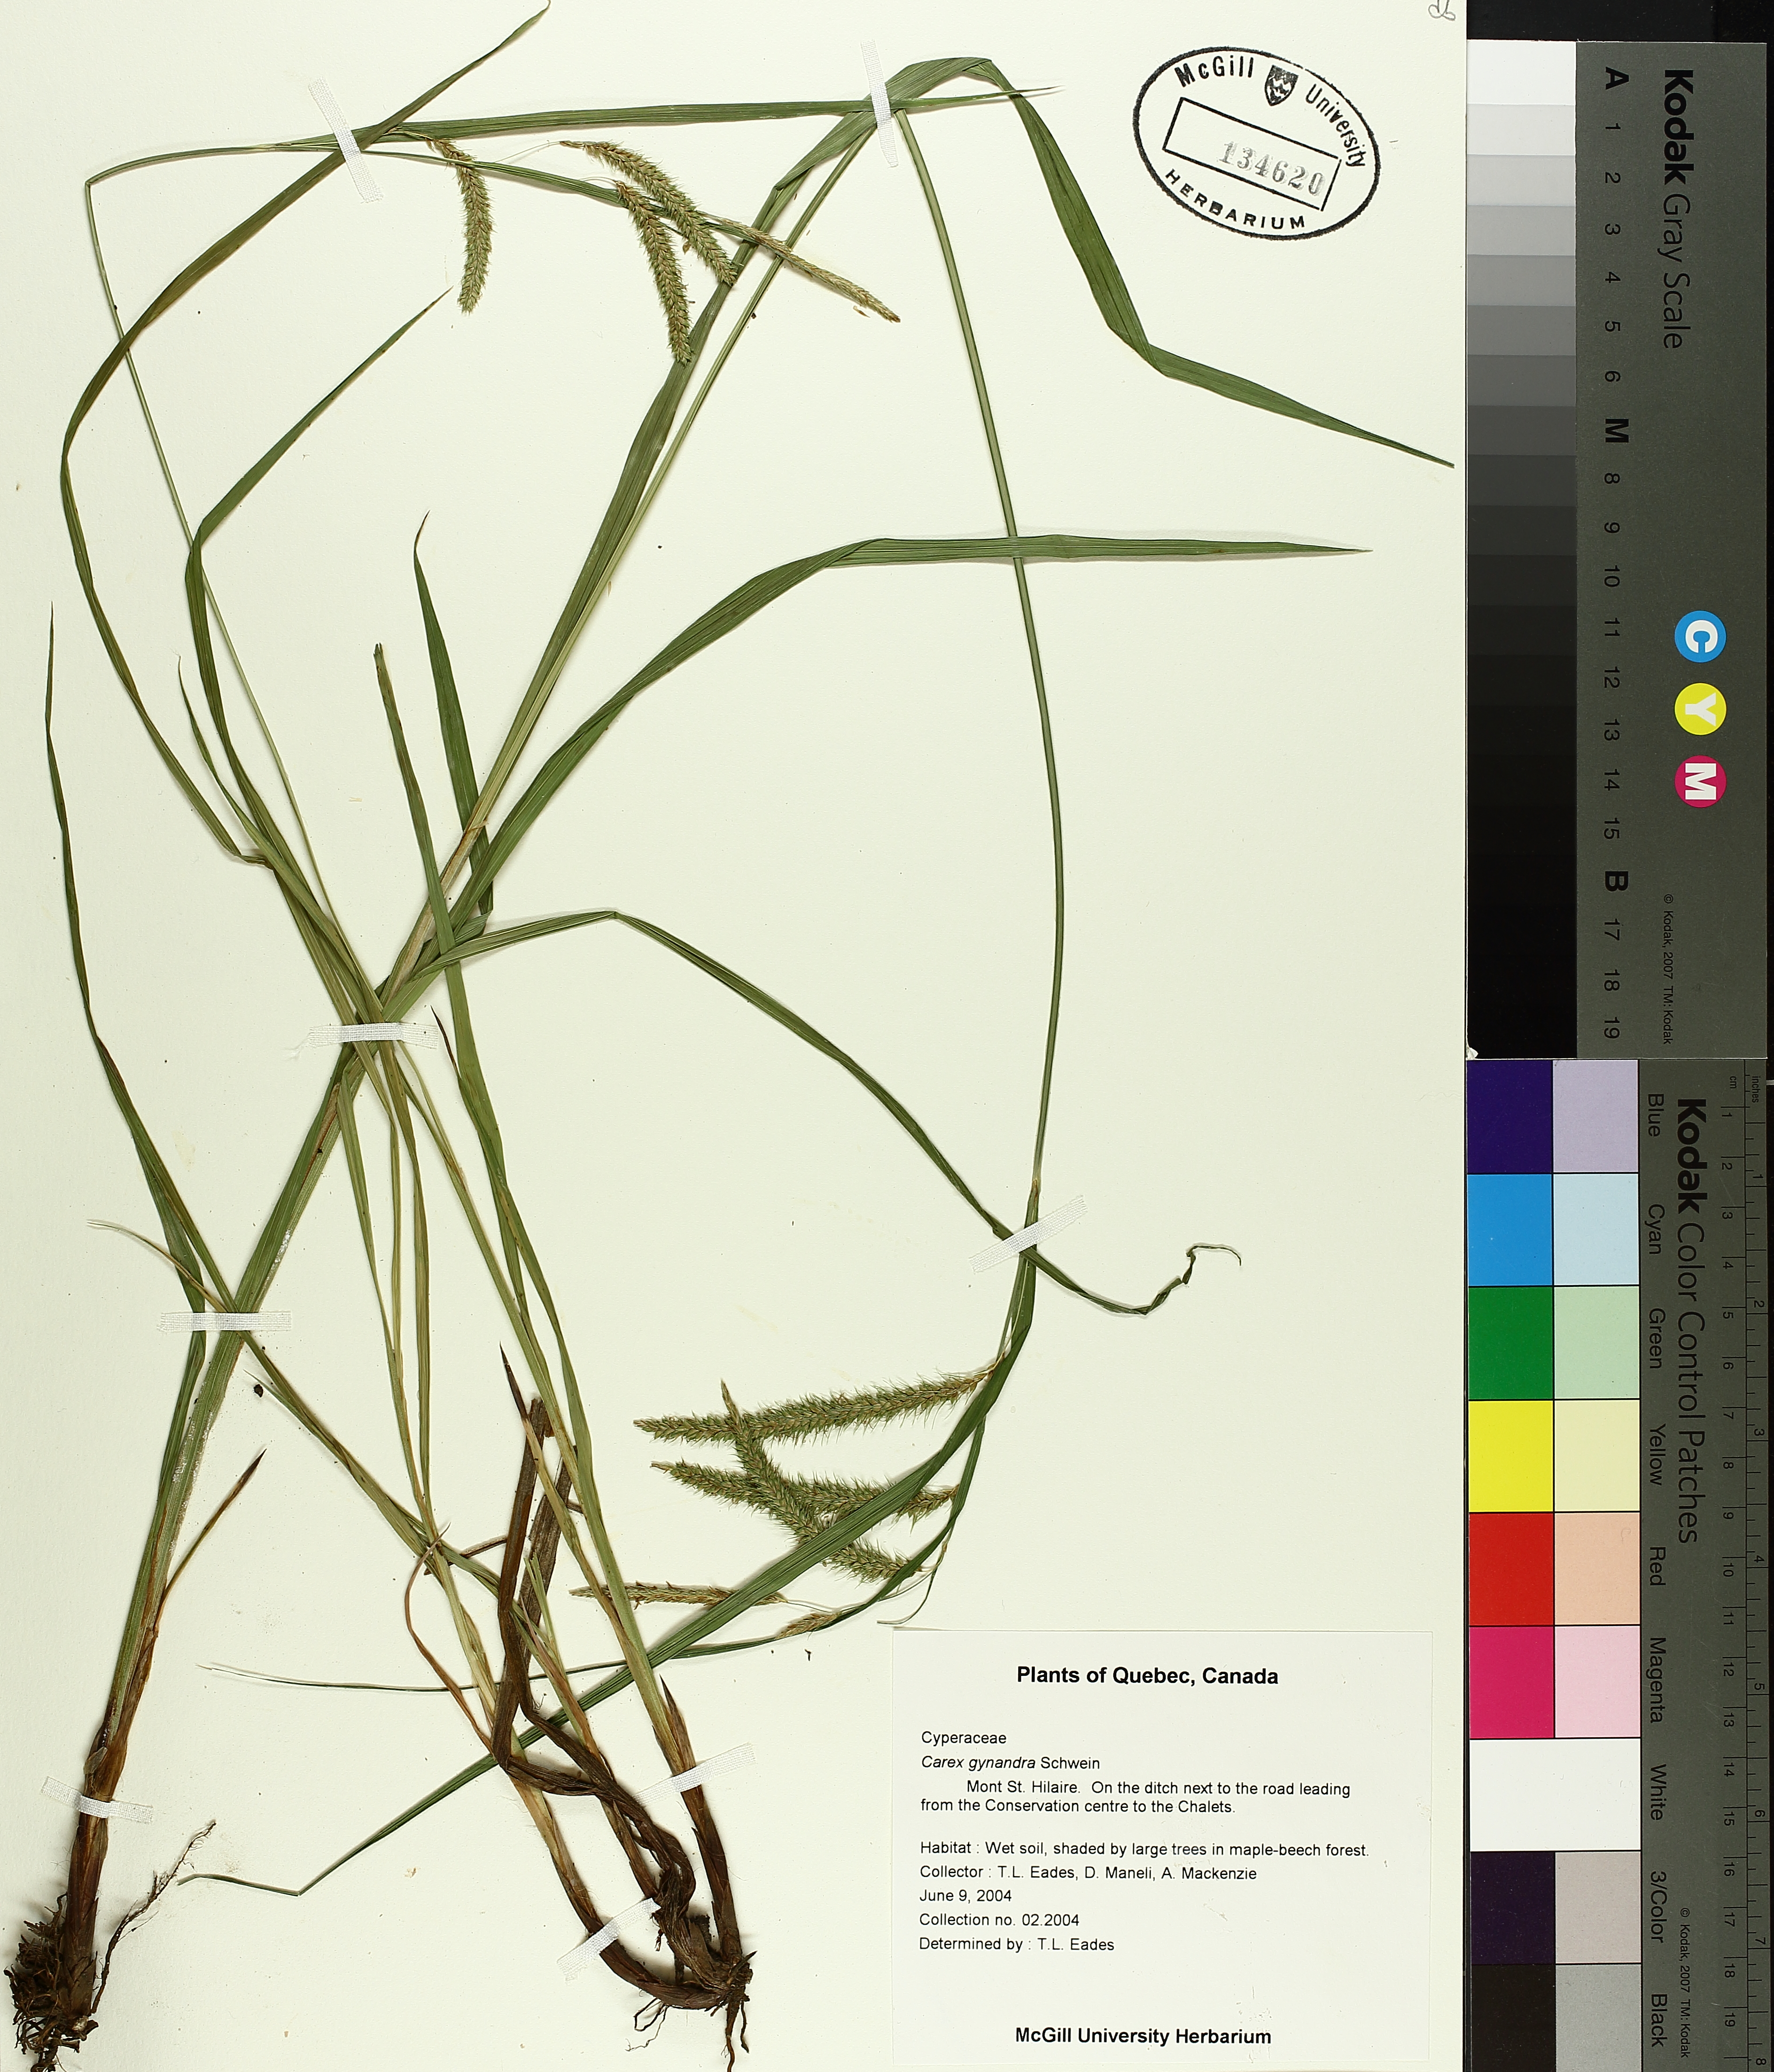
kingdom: Plantae
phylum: Tracheophyta
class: Liliopsida
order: Poales
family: Cyperaceae
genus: Carex
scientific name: Carex gynandra
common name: Nodding sedge
